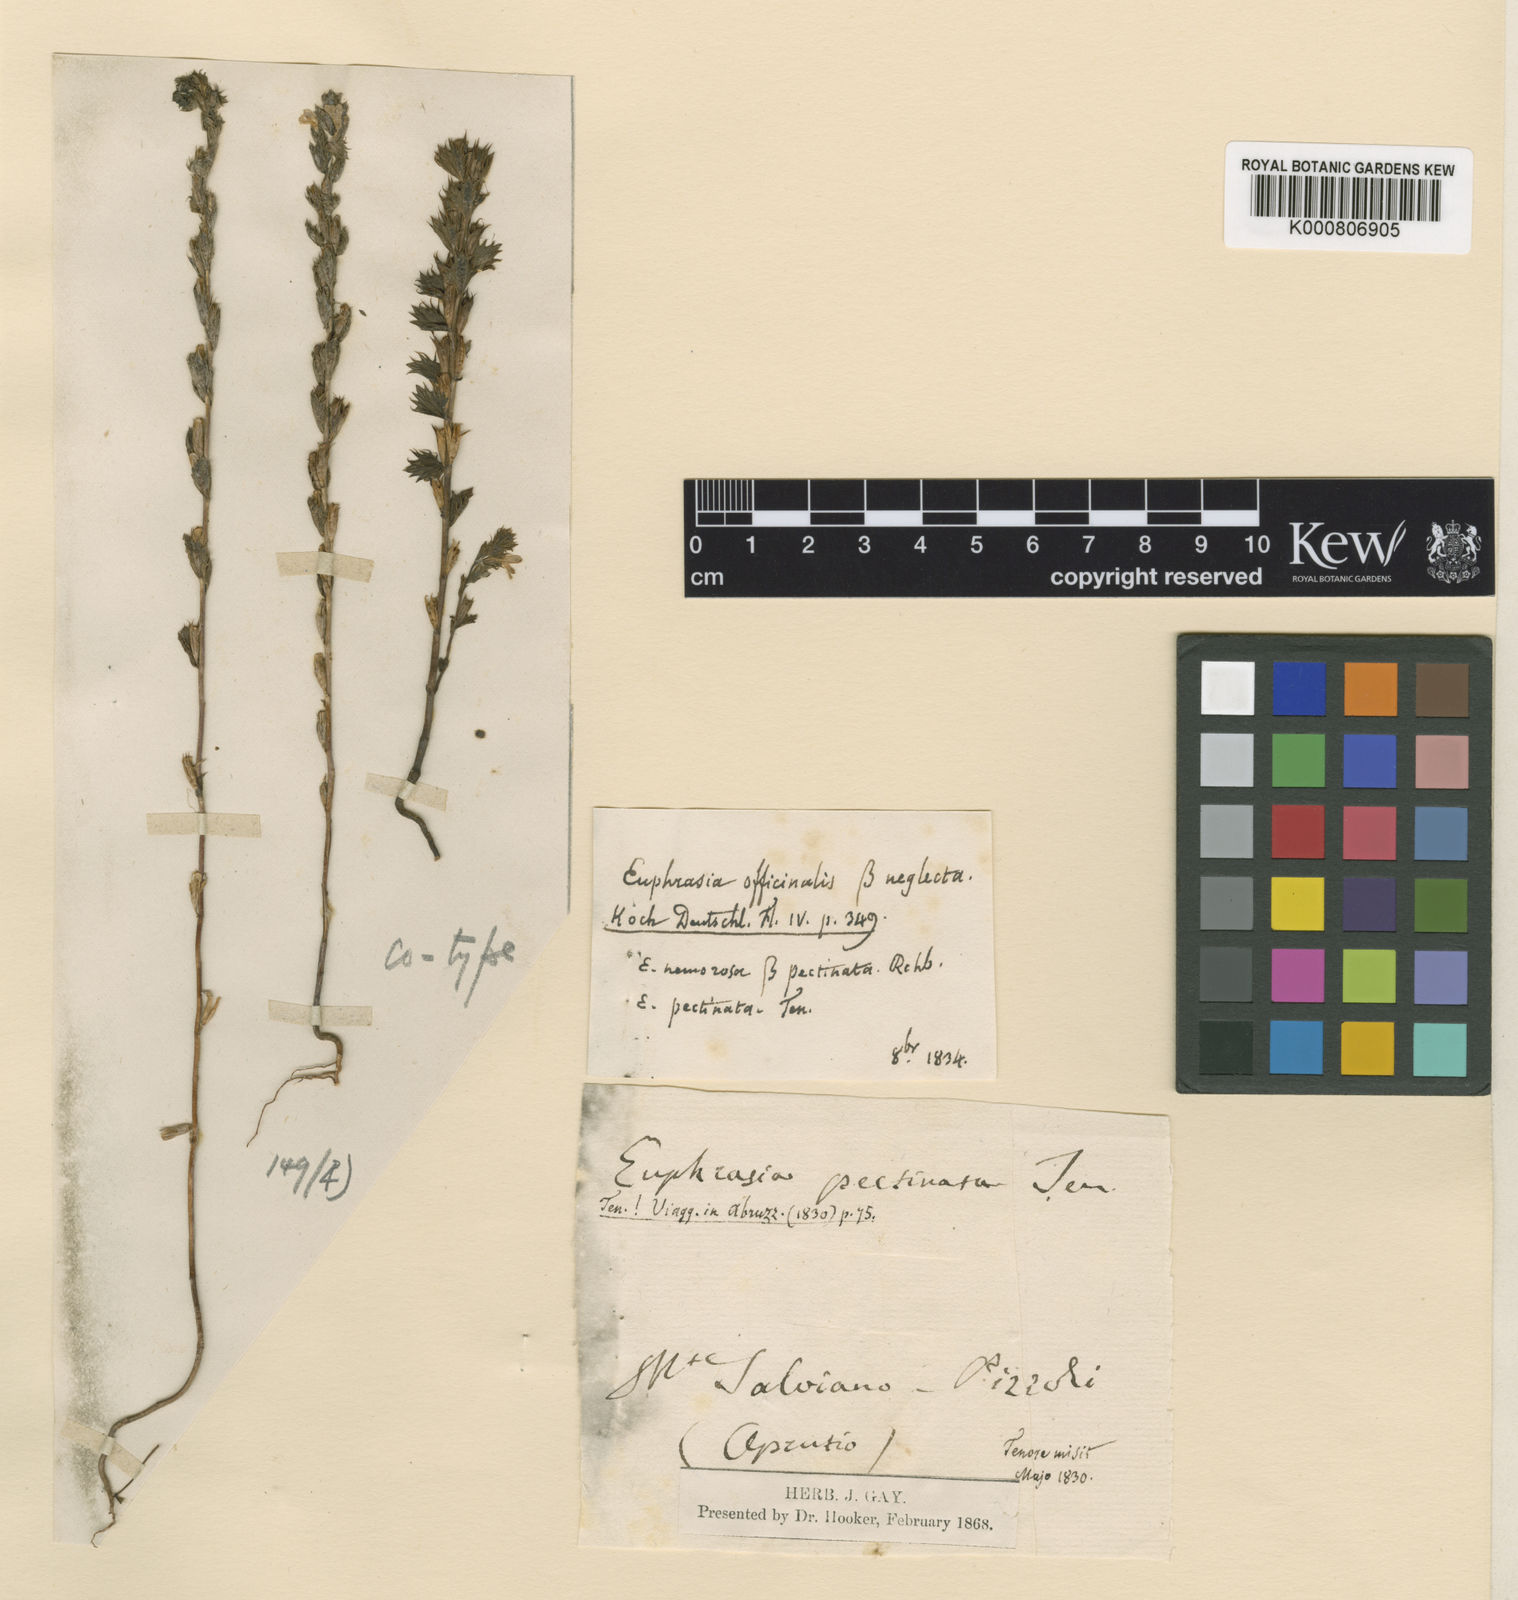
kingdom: Plantae
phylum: Tracheophyta
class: Magnoliopsida
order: Lamiales
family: Orobanchaceae
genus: Euphrasia
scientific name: Euphrasia pectinata
